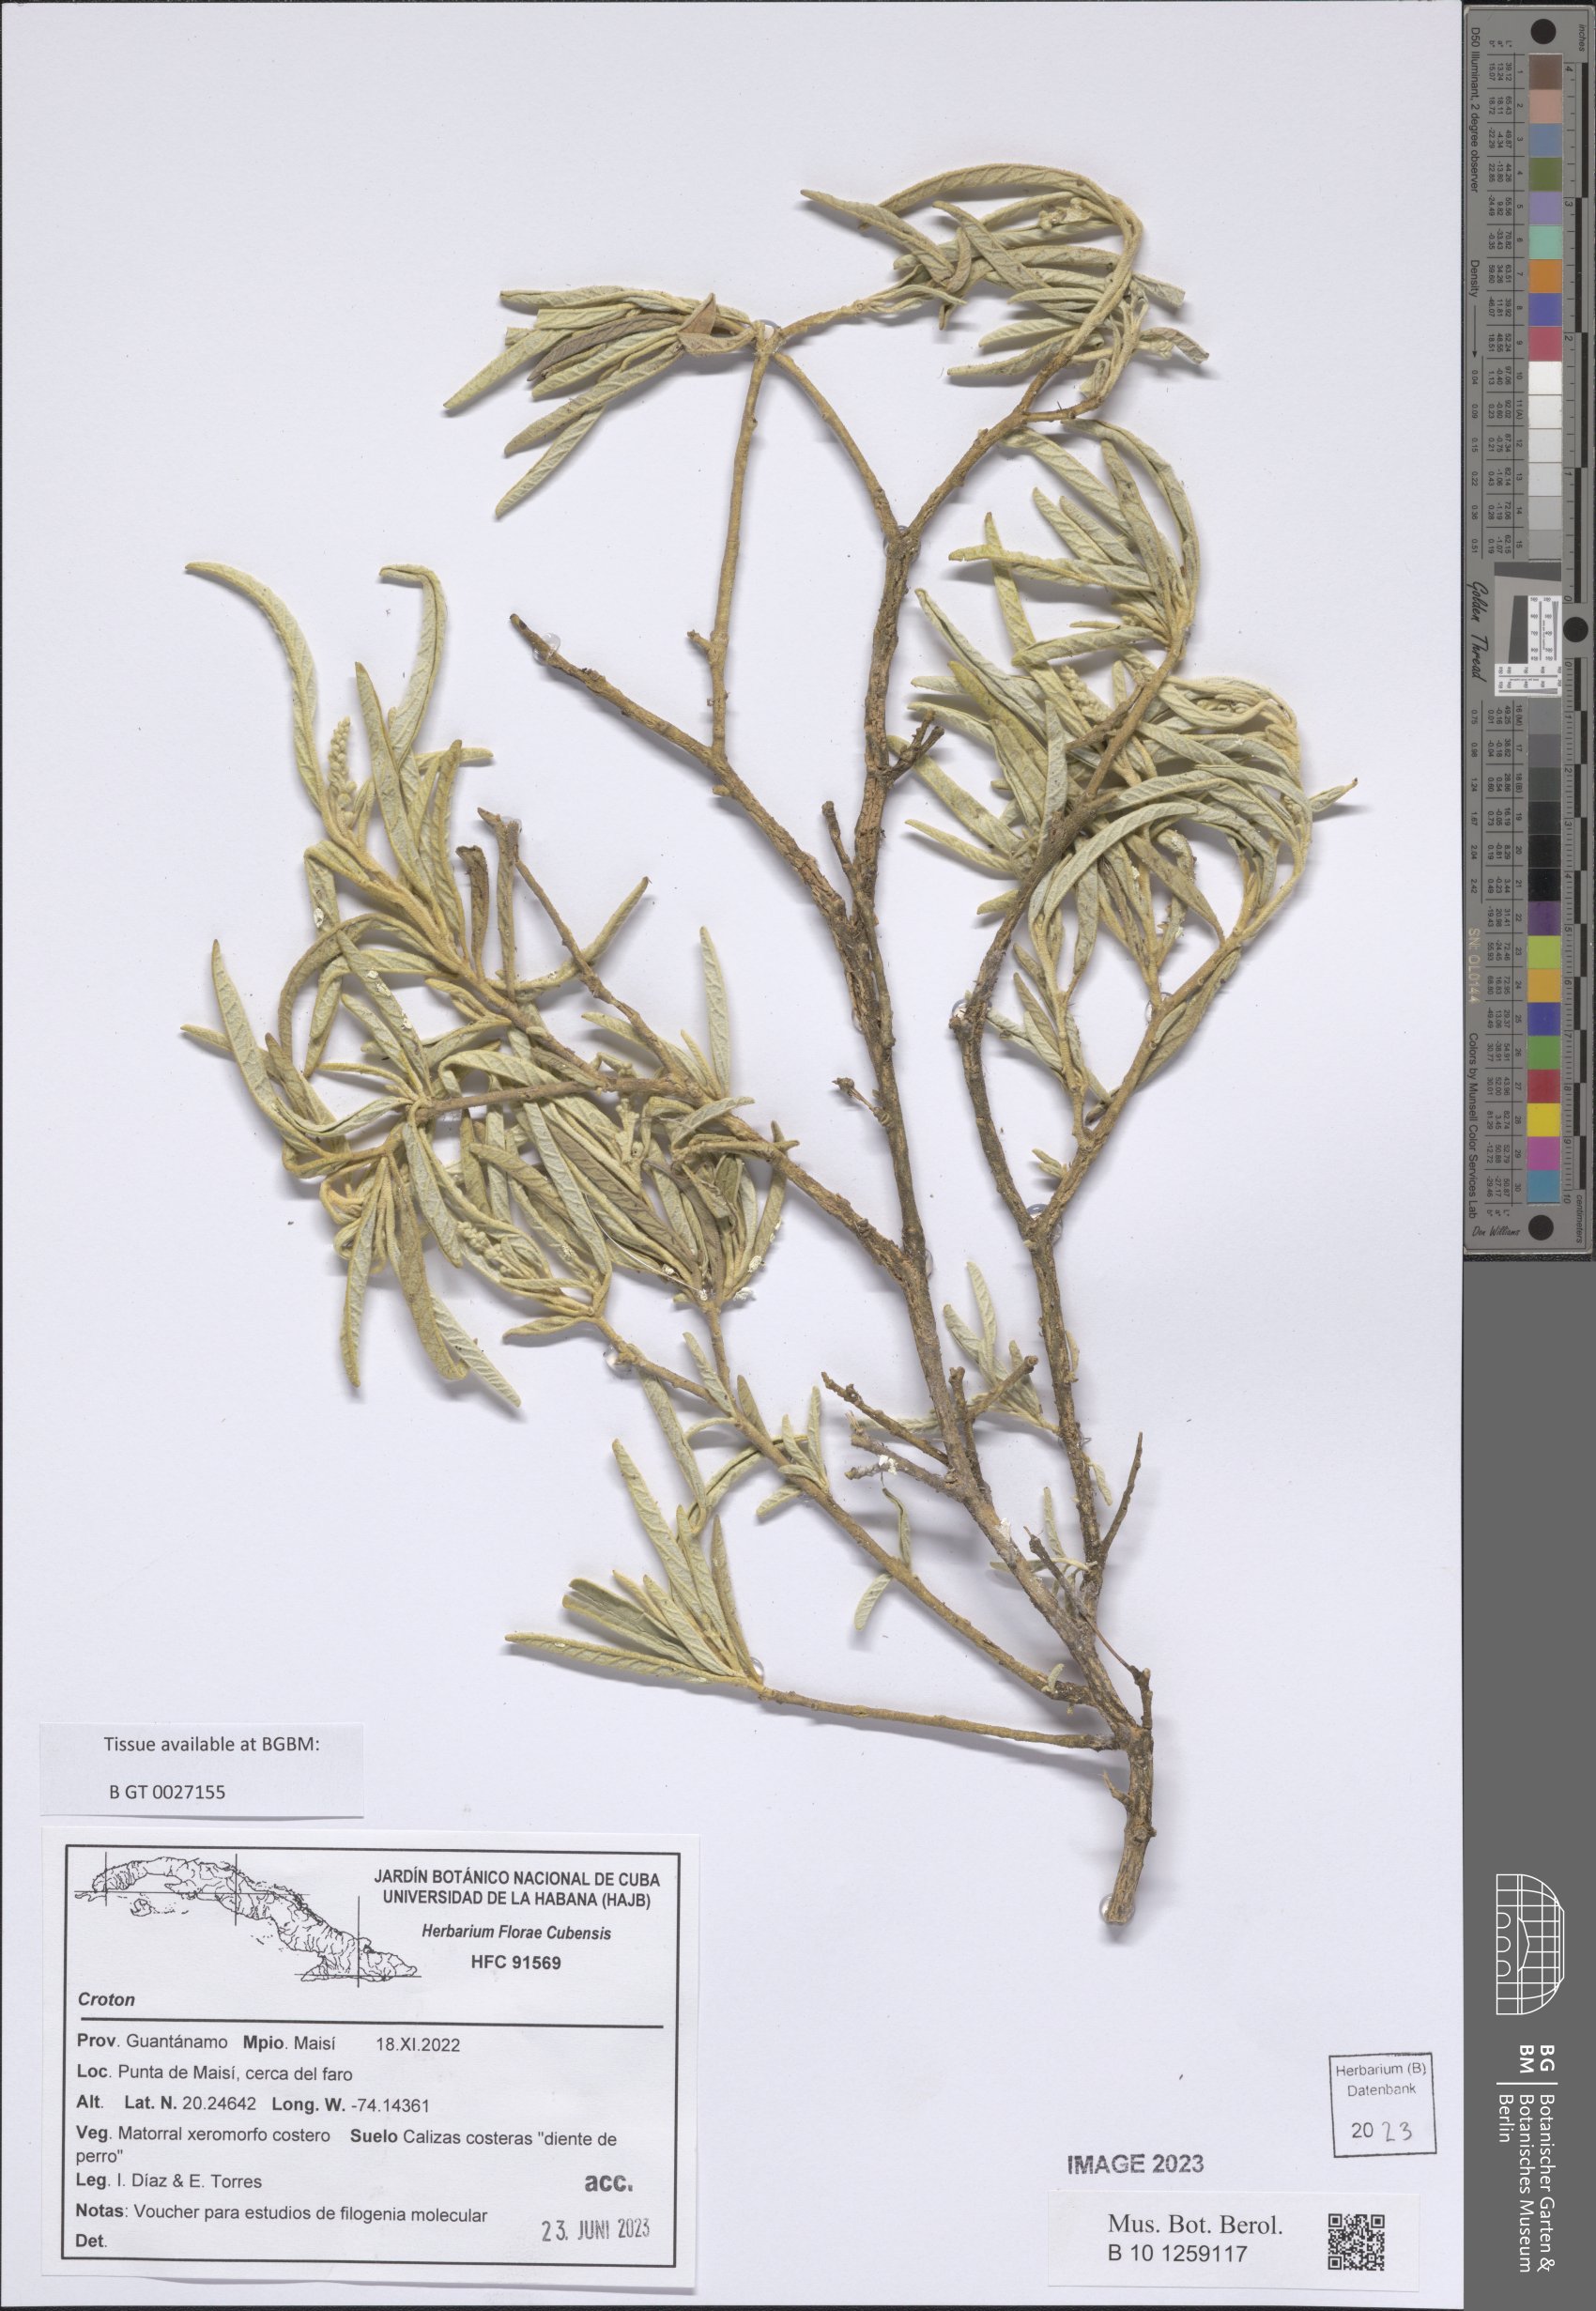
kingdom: Plantae
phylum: Tracheophyta
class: Magnoliopsida
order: Malpighiales
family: Euphorbiaceae
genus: Croton
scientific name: Croton
